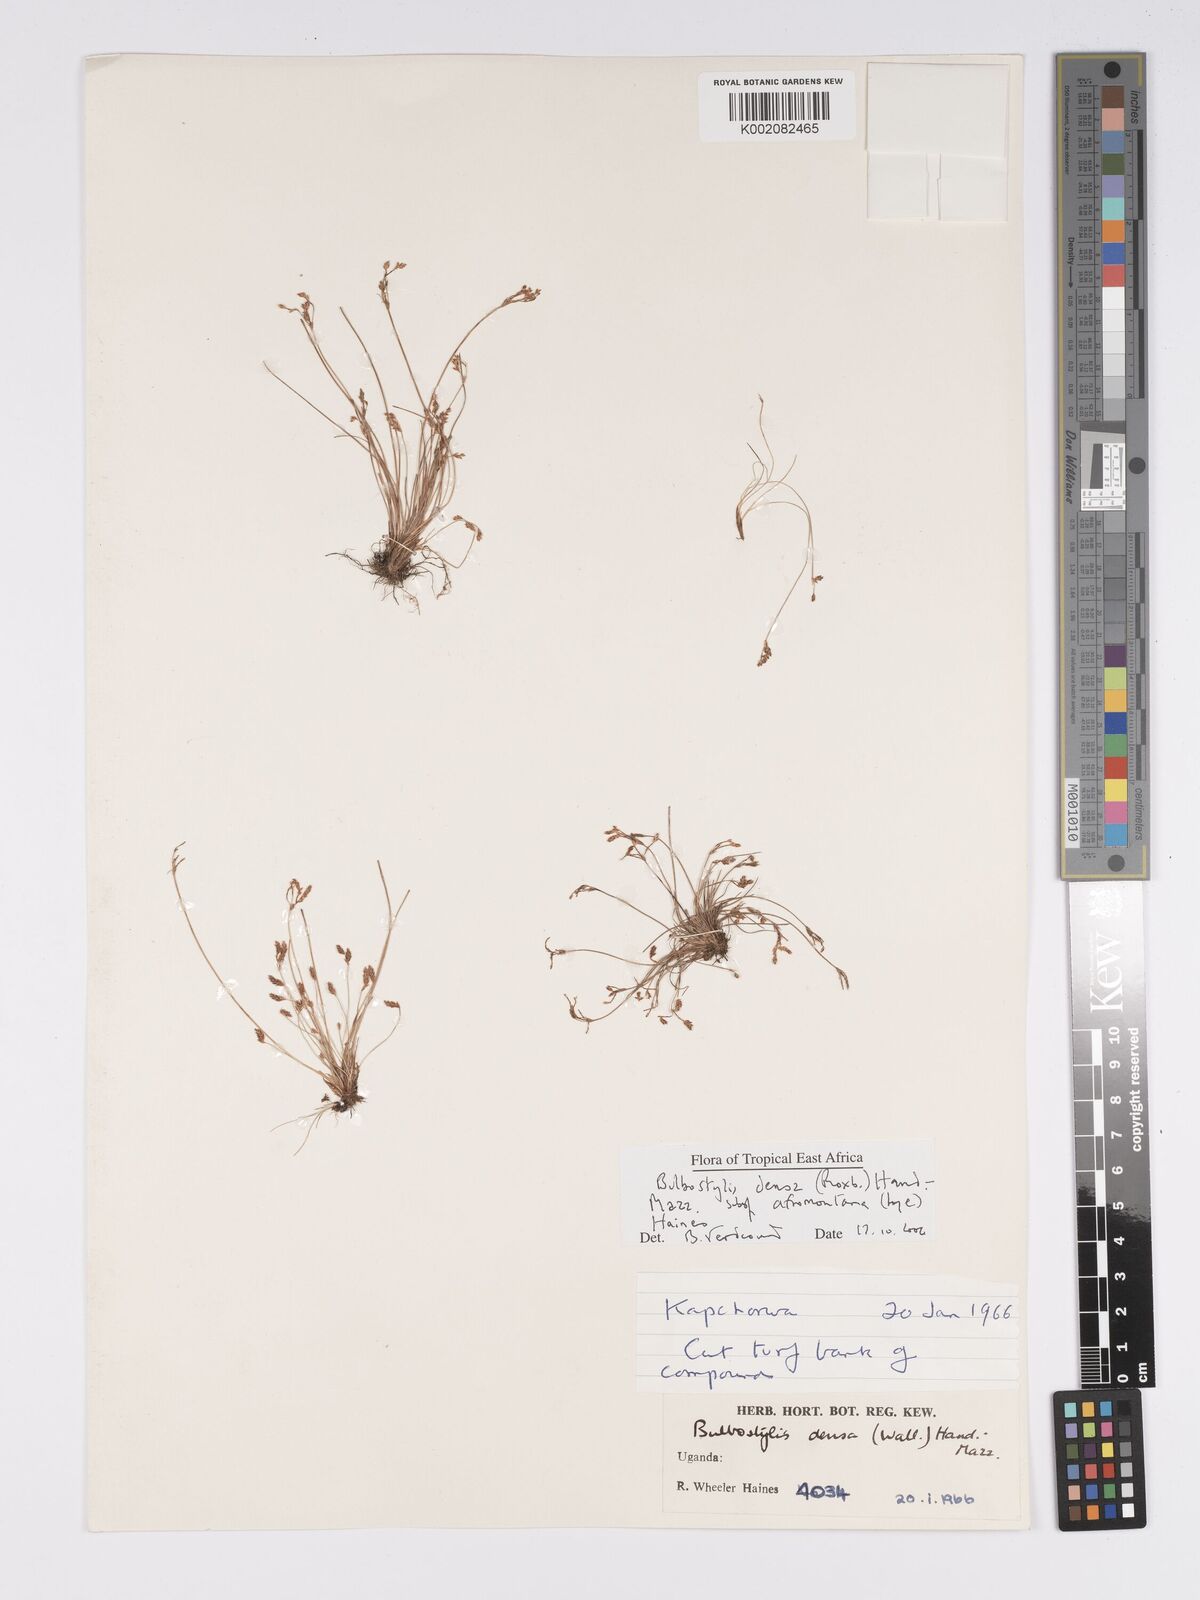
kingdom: Plantae
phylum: Tracheophyta
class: Liliopsida
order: Poales
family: Cyperaceae
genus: Bulbostylis
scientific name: Bulbostylis densa
